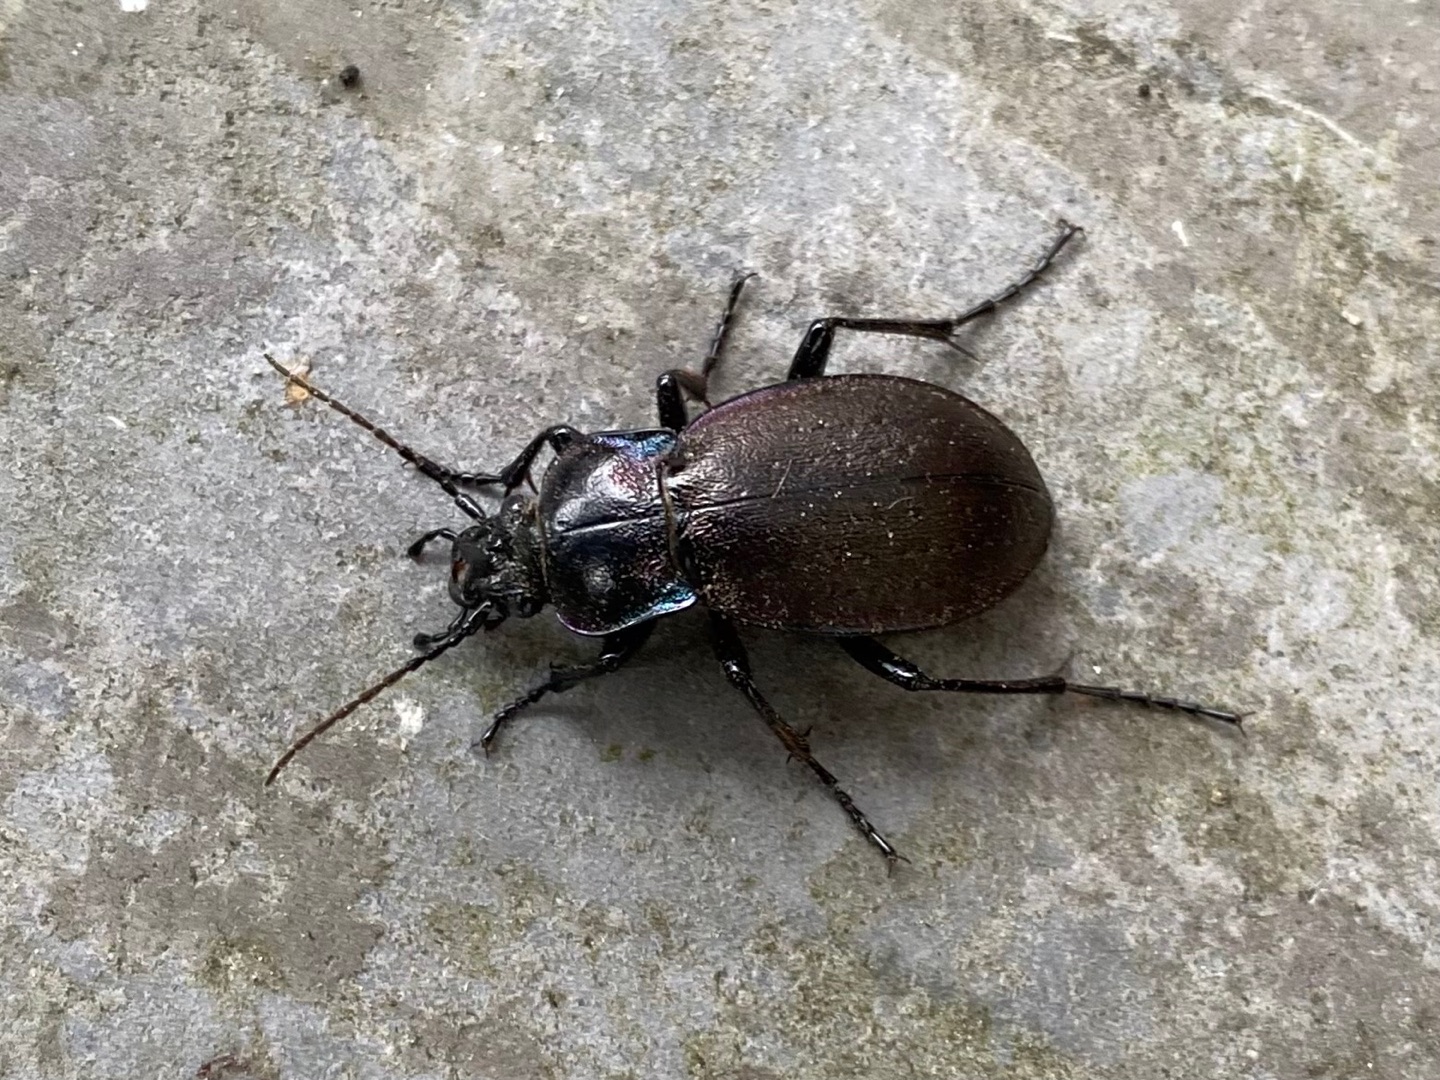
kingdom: Animalia
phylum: Arthropoda
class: Insecta
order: Coleoptera
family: Carabidae
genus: Carabus
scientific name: Carabus nemoralis
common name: Kratløber
